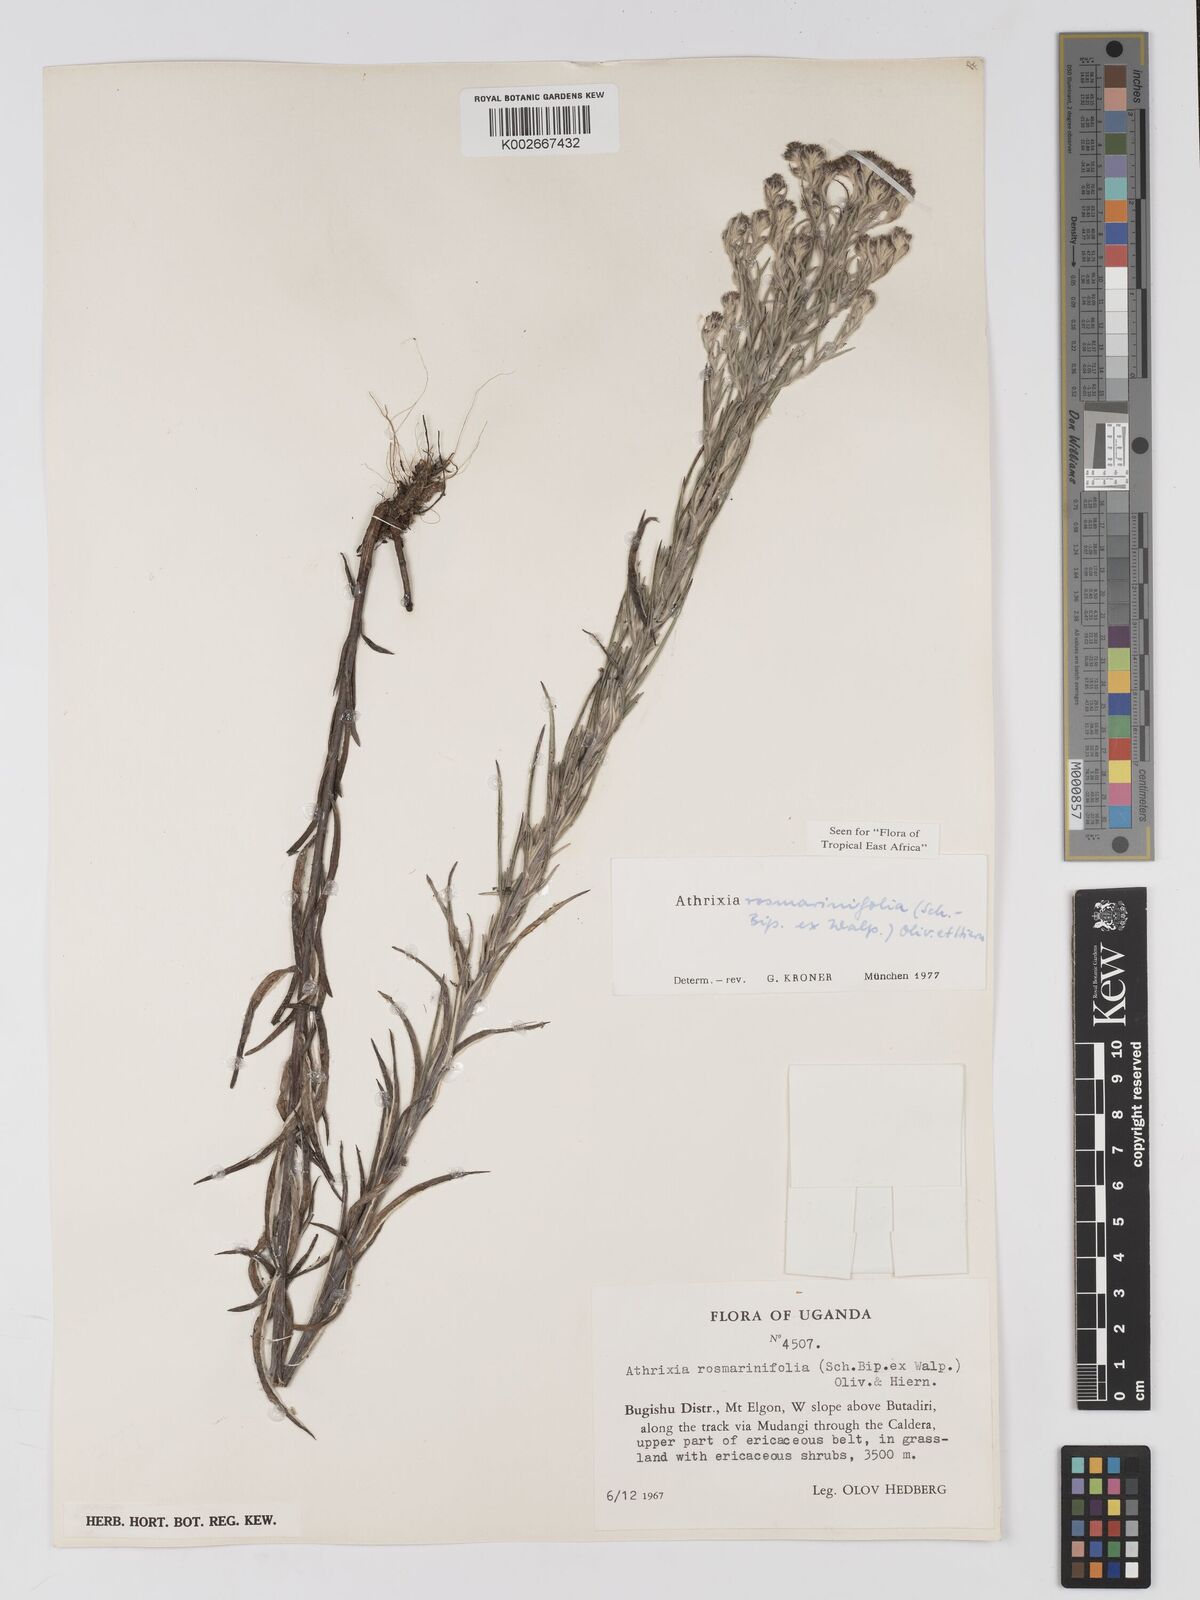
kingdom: Plantae
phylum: Tracheophyta
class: Magnoliopsida
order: Asterales
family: Asteraceae
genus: Athrixia
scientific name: Athrixia rosmarinifolia
